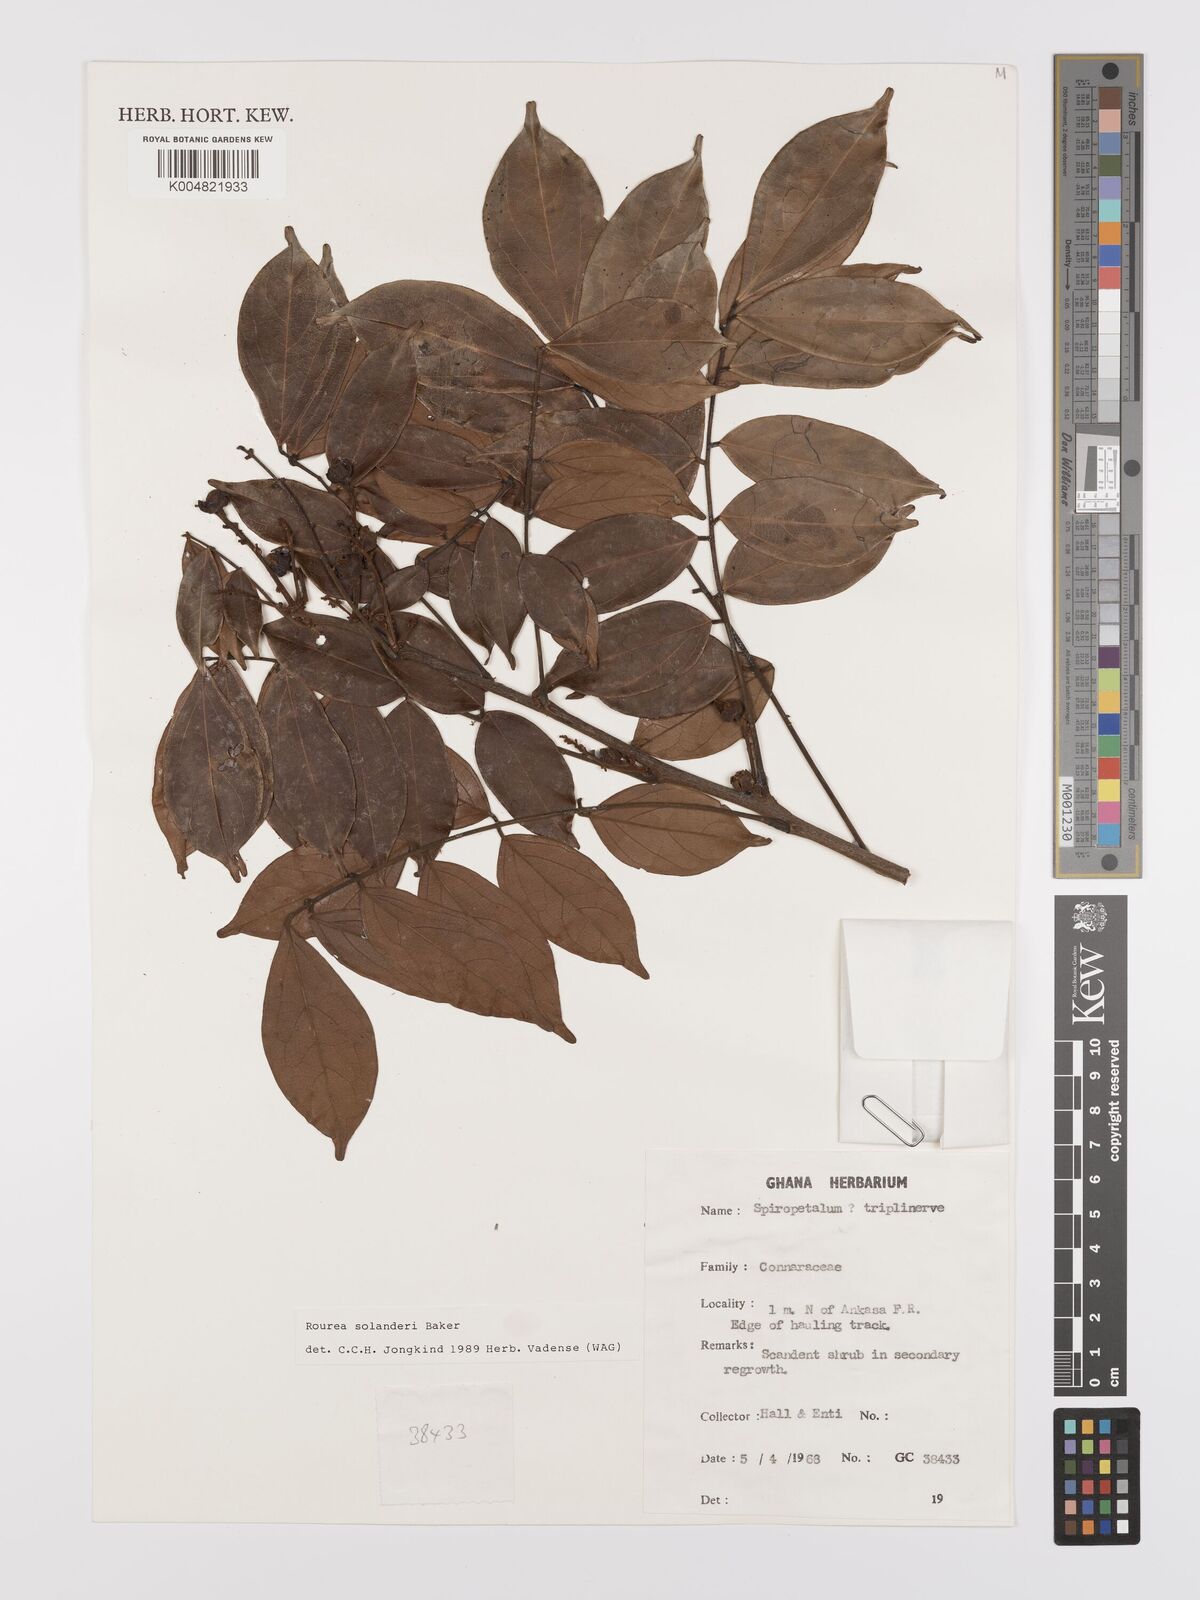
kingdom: Plantae
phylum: Tracheophyta
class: Magnoliopsida
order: Oxalidales
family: Connaraceae
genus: Rourea
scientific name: Rourea solanderi
